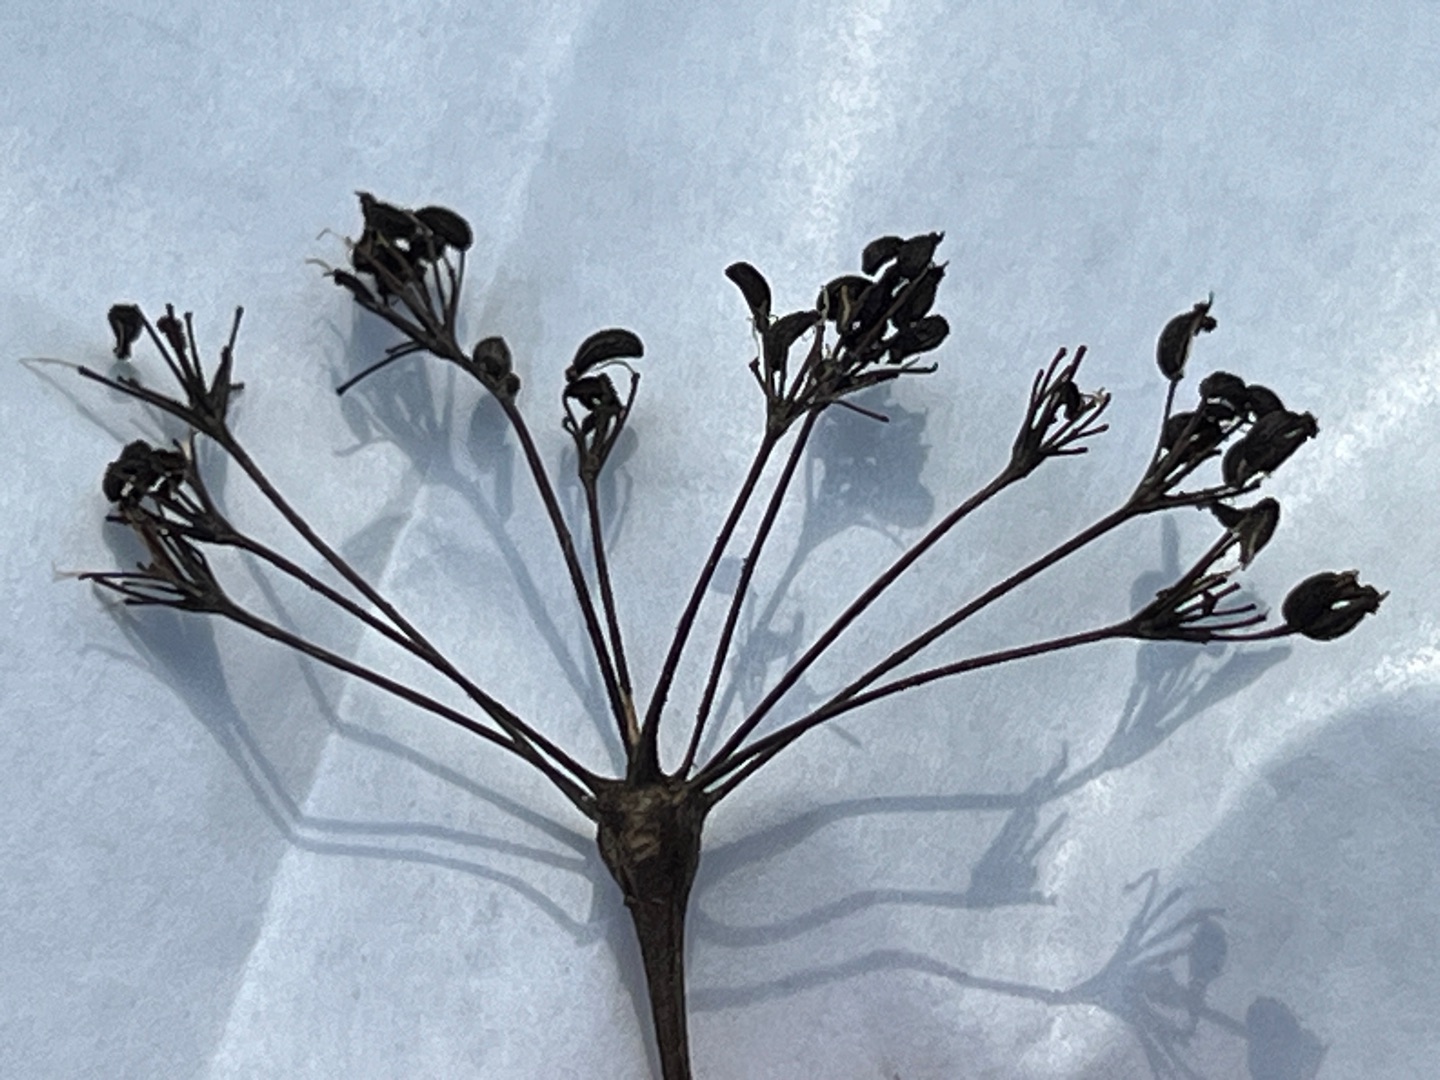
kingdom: Animalia
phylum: Arthropoda
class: Insecta
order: Diptera
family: Cecidomyiidae
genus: Lasioptera
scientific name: Lasioptera carophila
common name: Skærmgalmyg
